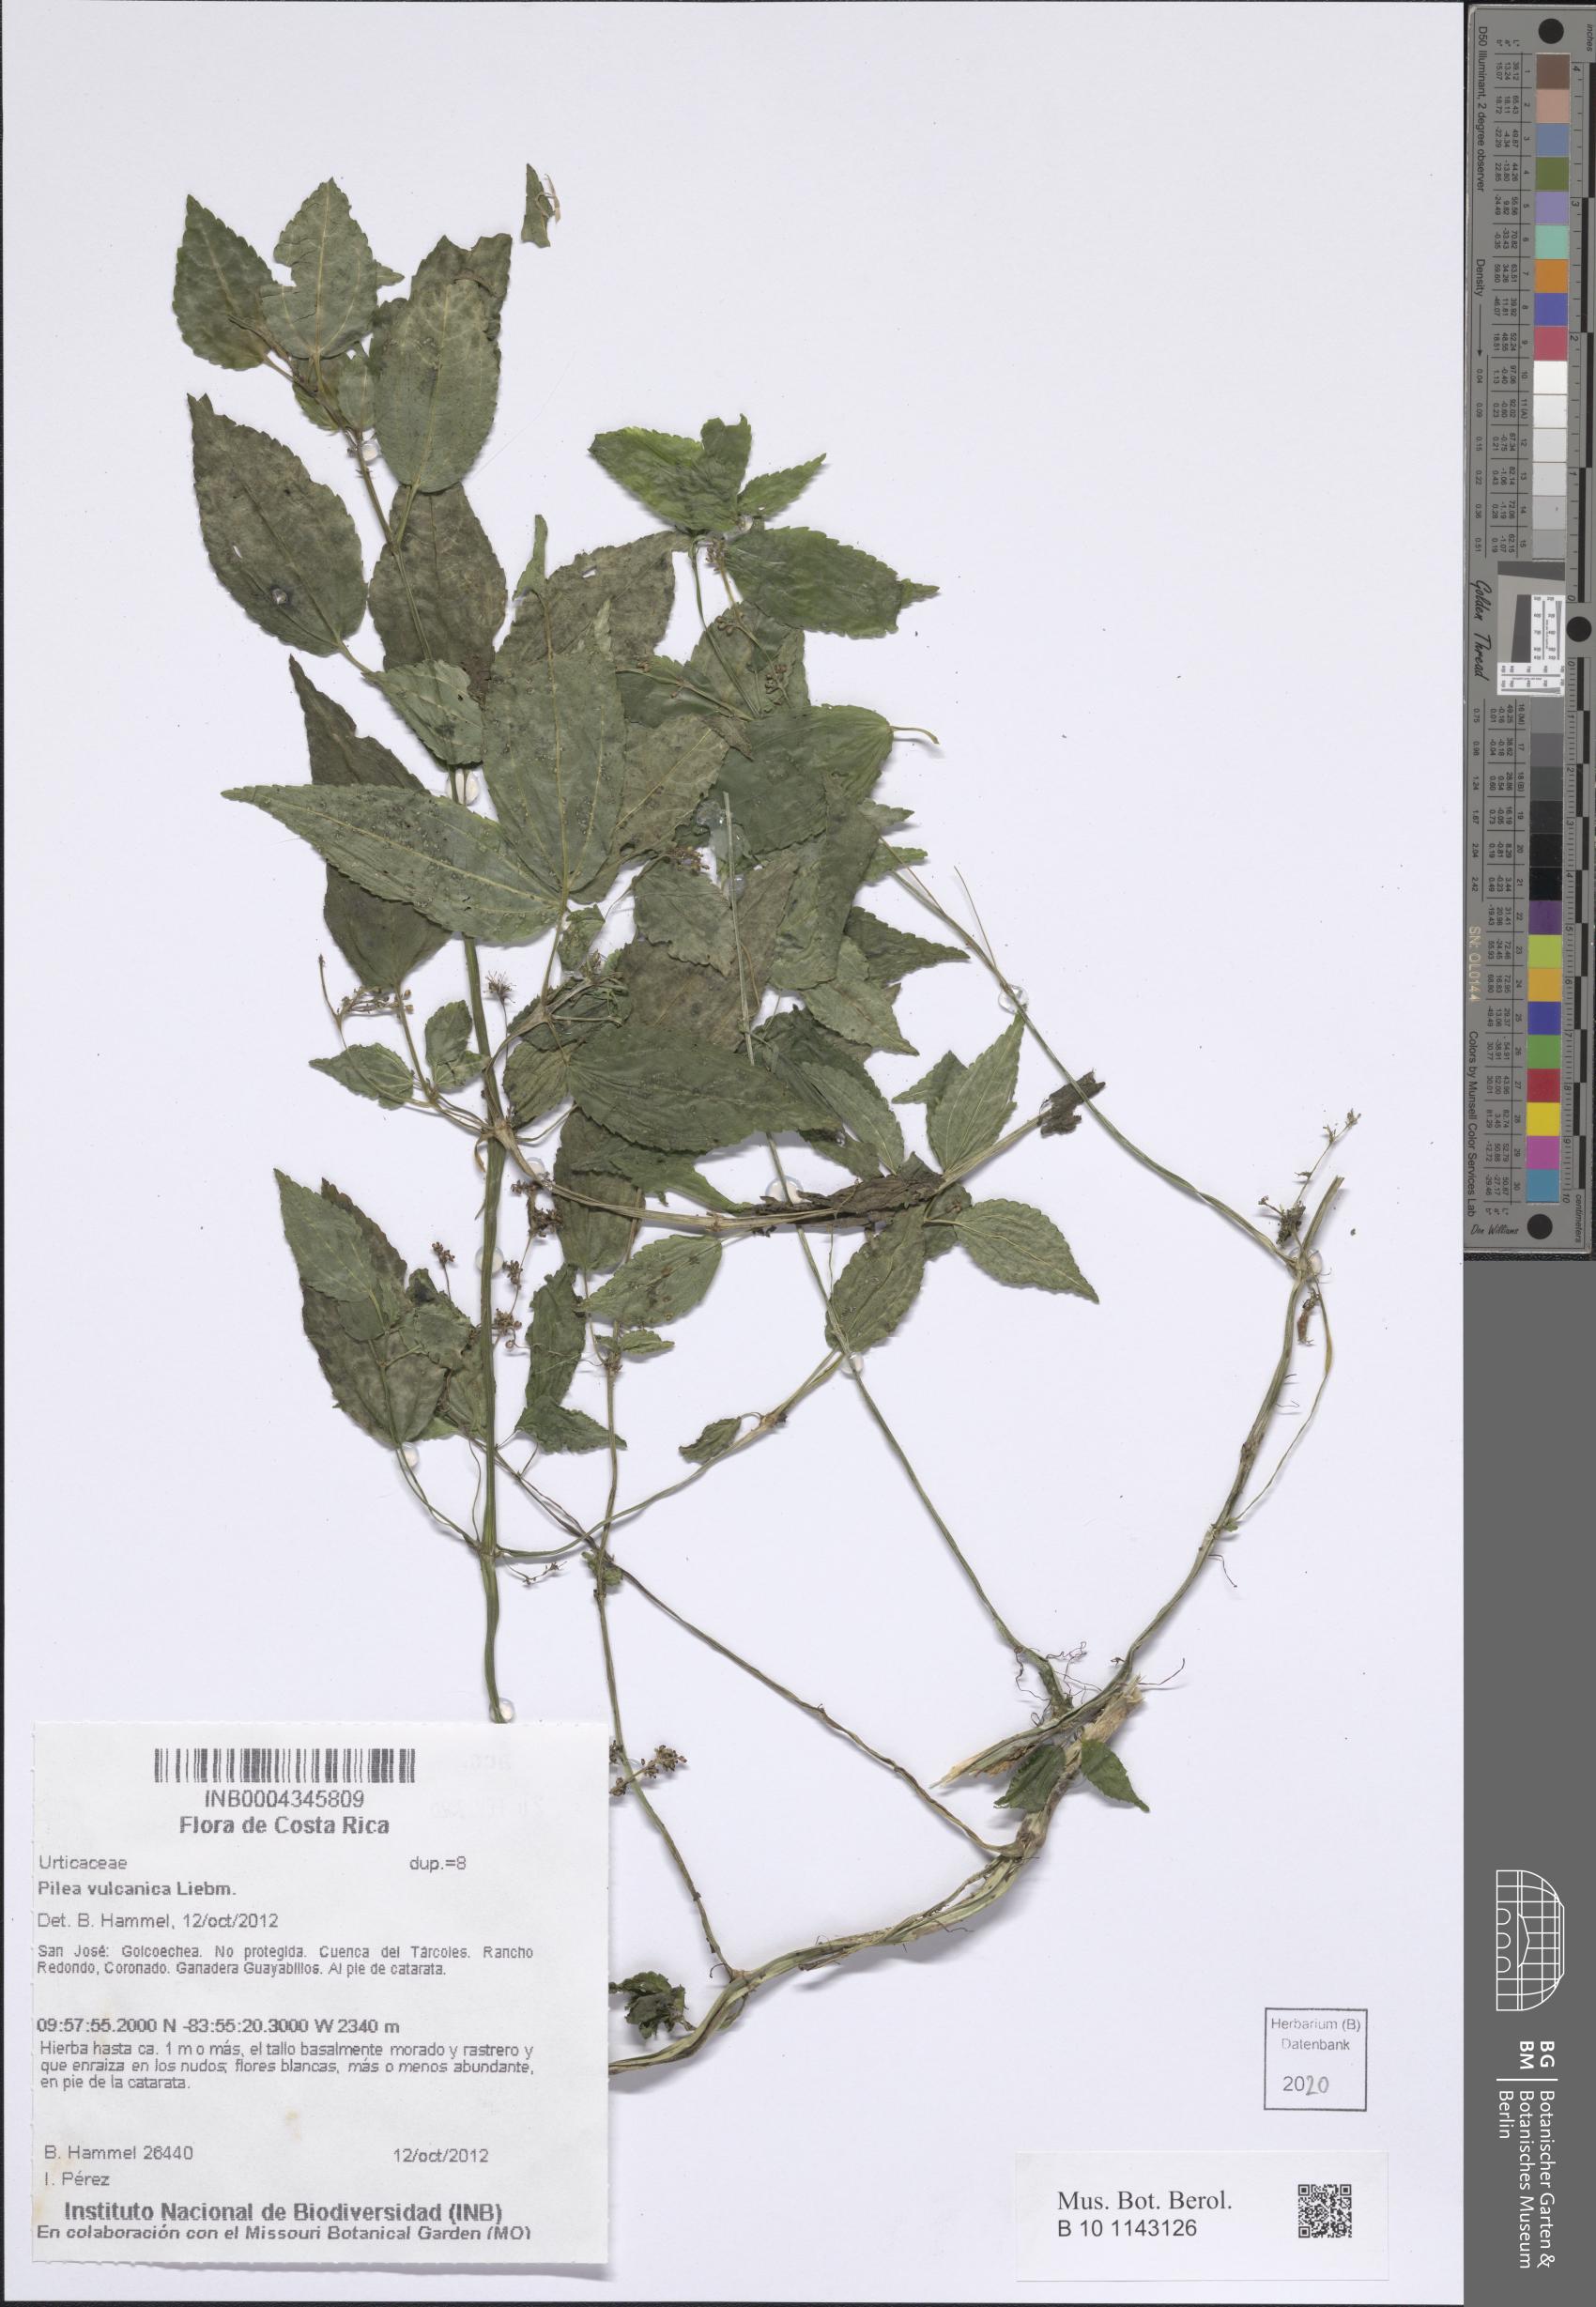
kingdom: Plantae
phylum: Tracheophyta
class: Magnoliopsida
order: Rosales
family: Urticaceae
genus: Pilea
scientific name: Pilea vulcanica
